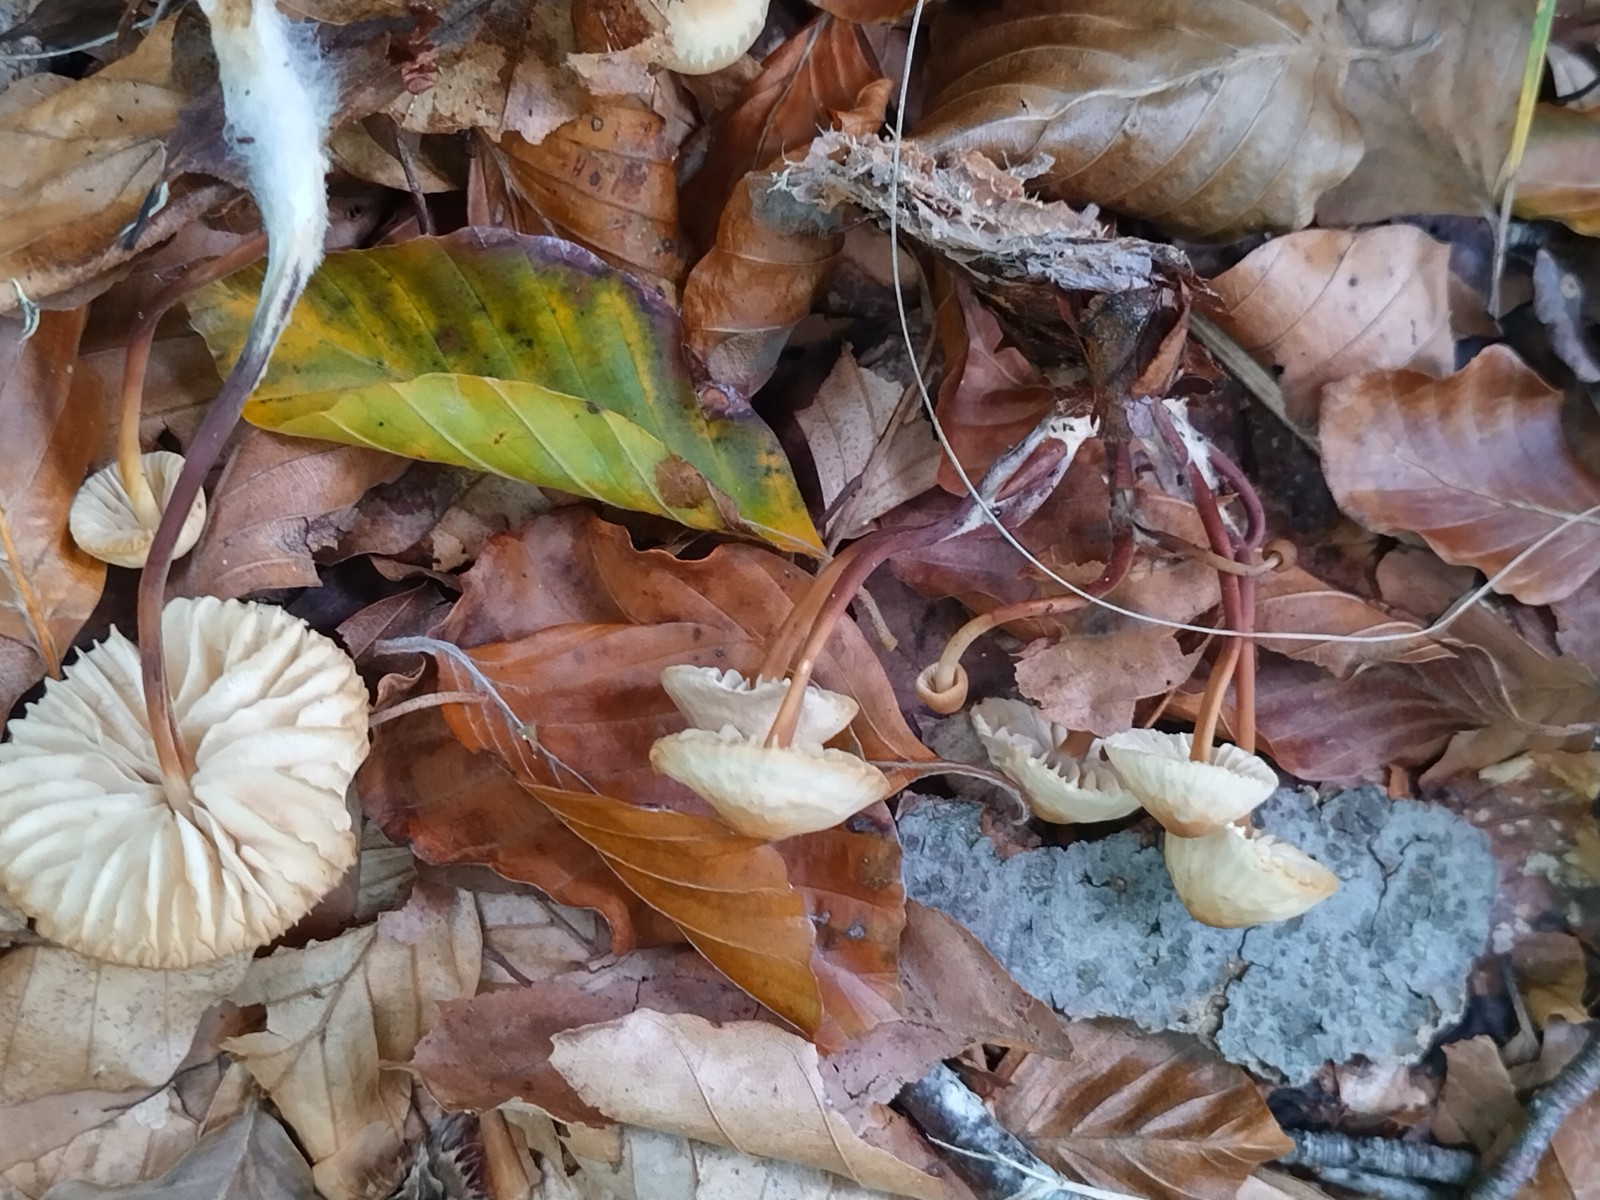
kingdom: Fungi
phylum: Basidiomycota
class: Agaricomycetes
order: Agaricales
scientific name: Agaricales
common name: champignonordenen
